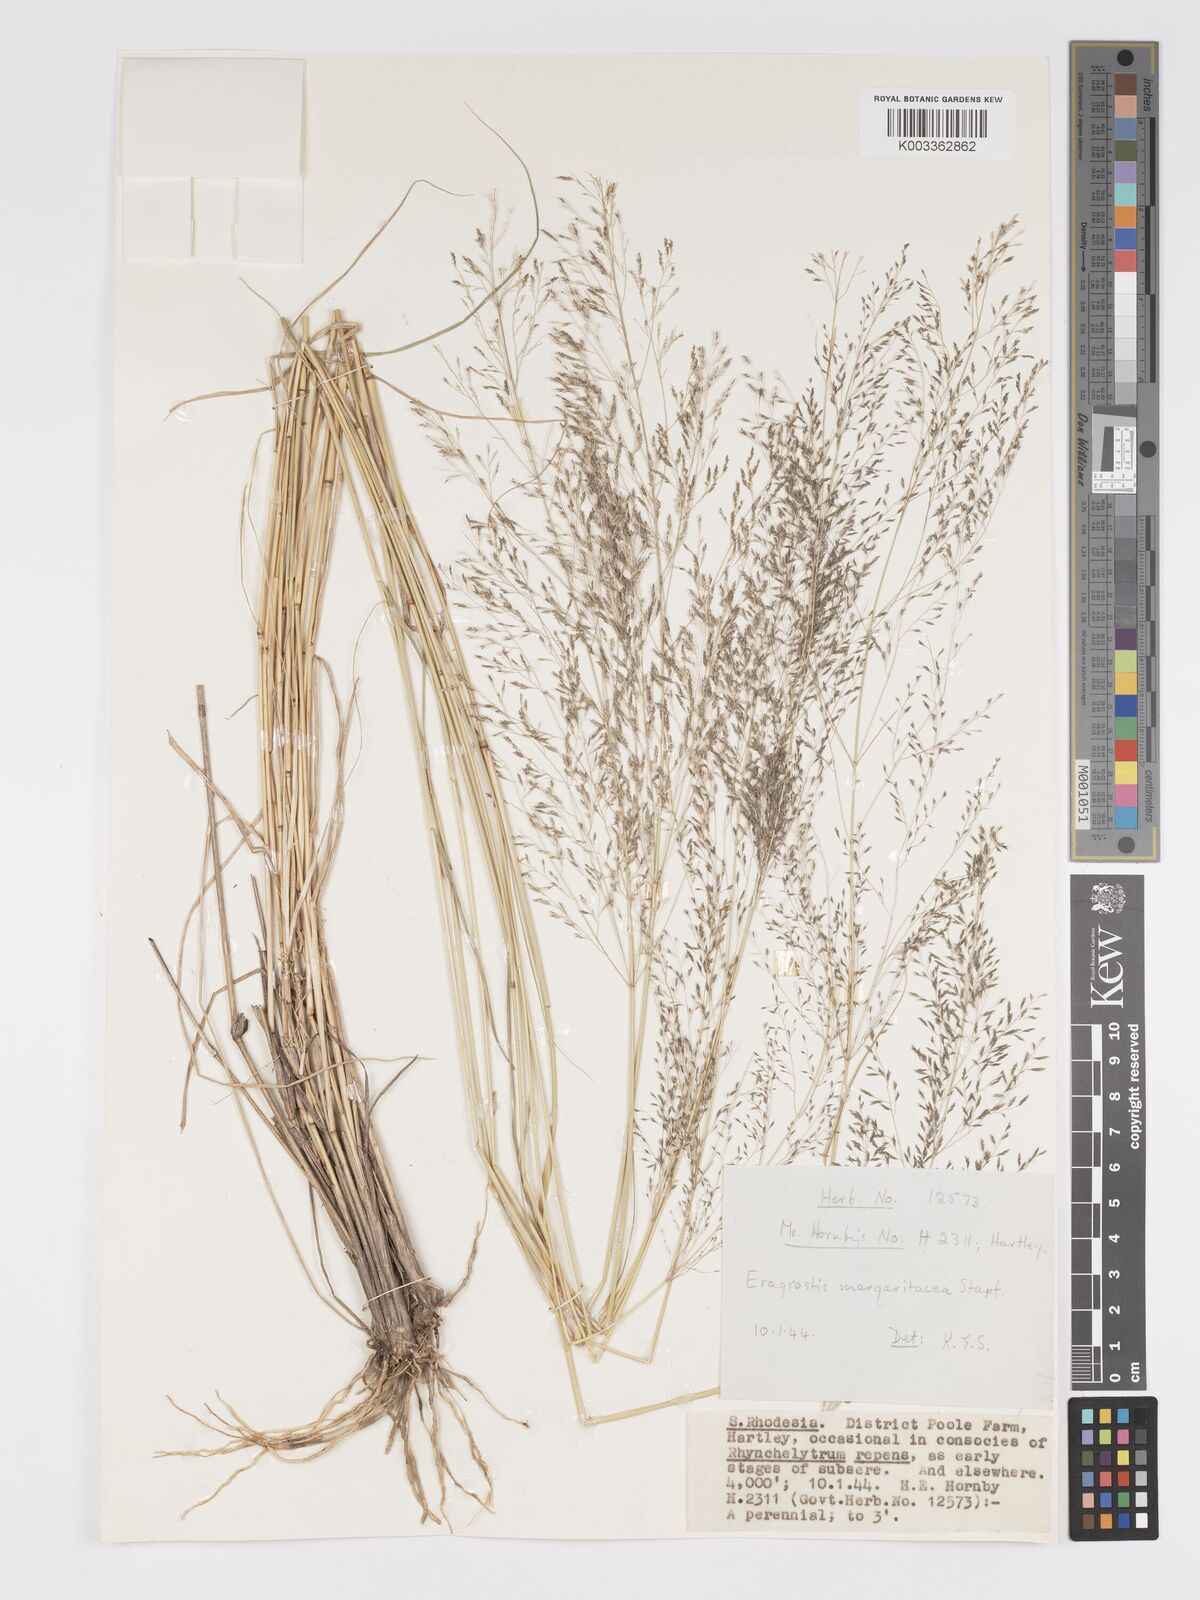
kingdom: Plantae
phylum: Tracheophyta
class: Liliopsida
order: Poales
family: Poaceae
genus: Eragrostis
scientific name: Eragrostis cylindriflora
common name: Cylinderflower lovegrass
